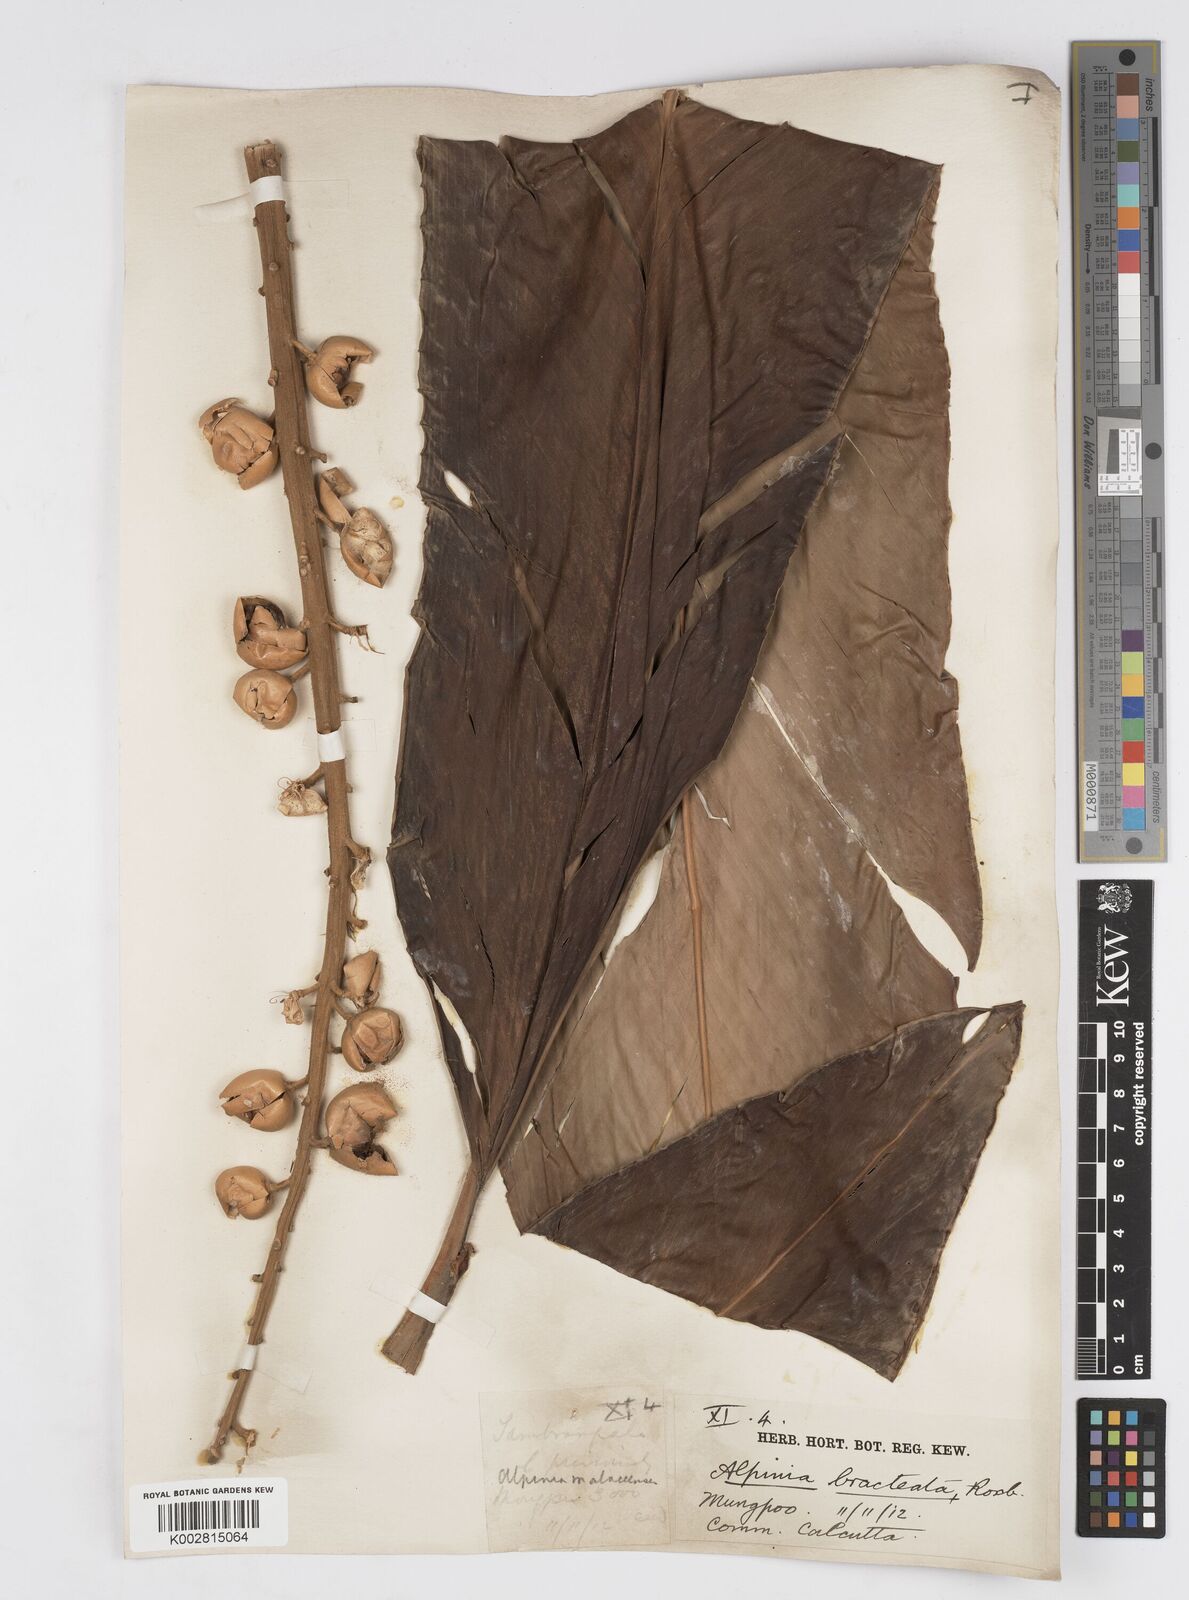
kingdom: Plantae
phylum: Tracheophyta
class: Liliopsida
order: Zingiberales
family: Zingiberaceae
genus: Alpinia
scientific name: Alpinia calcarata
